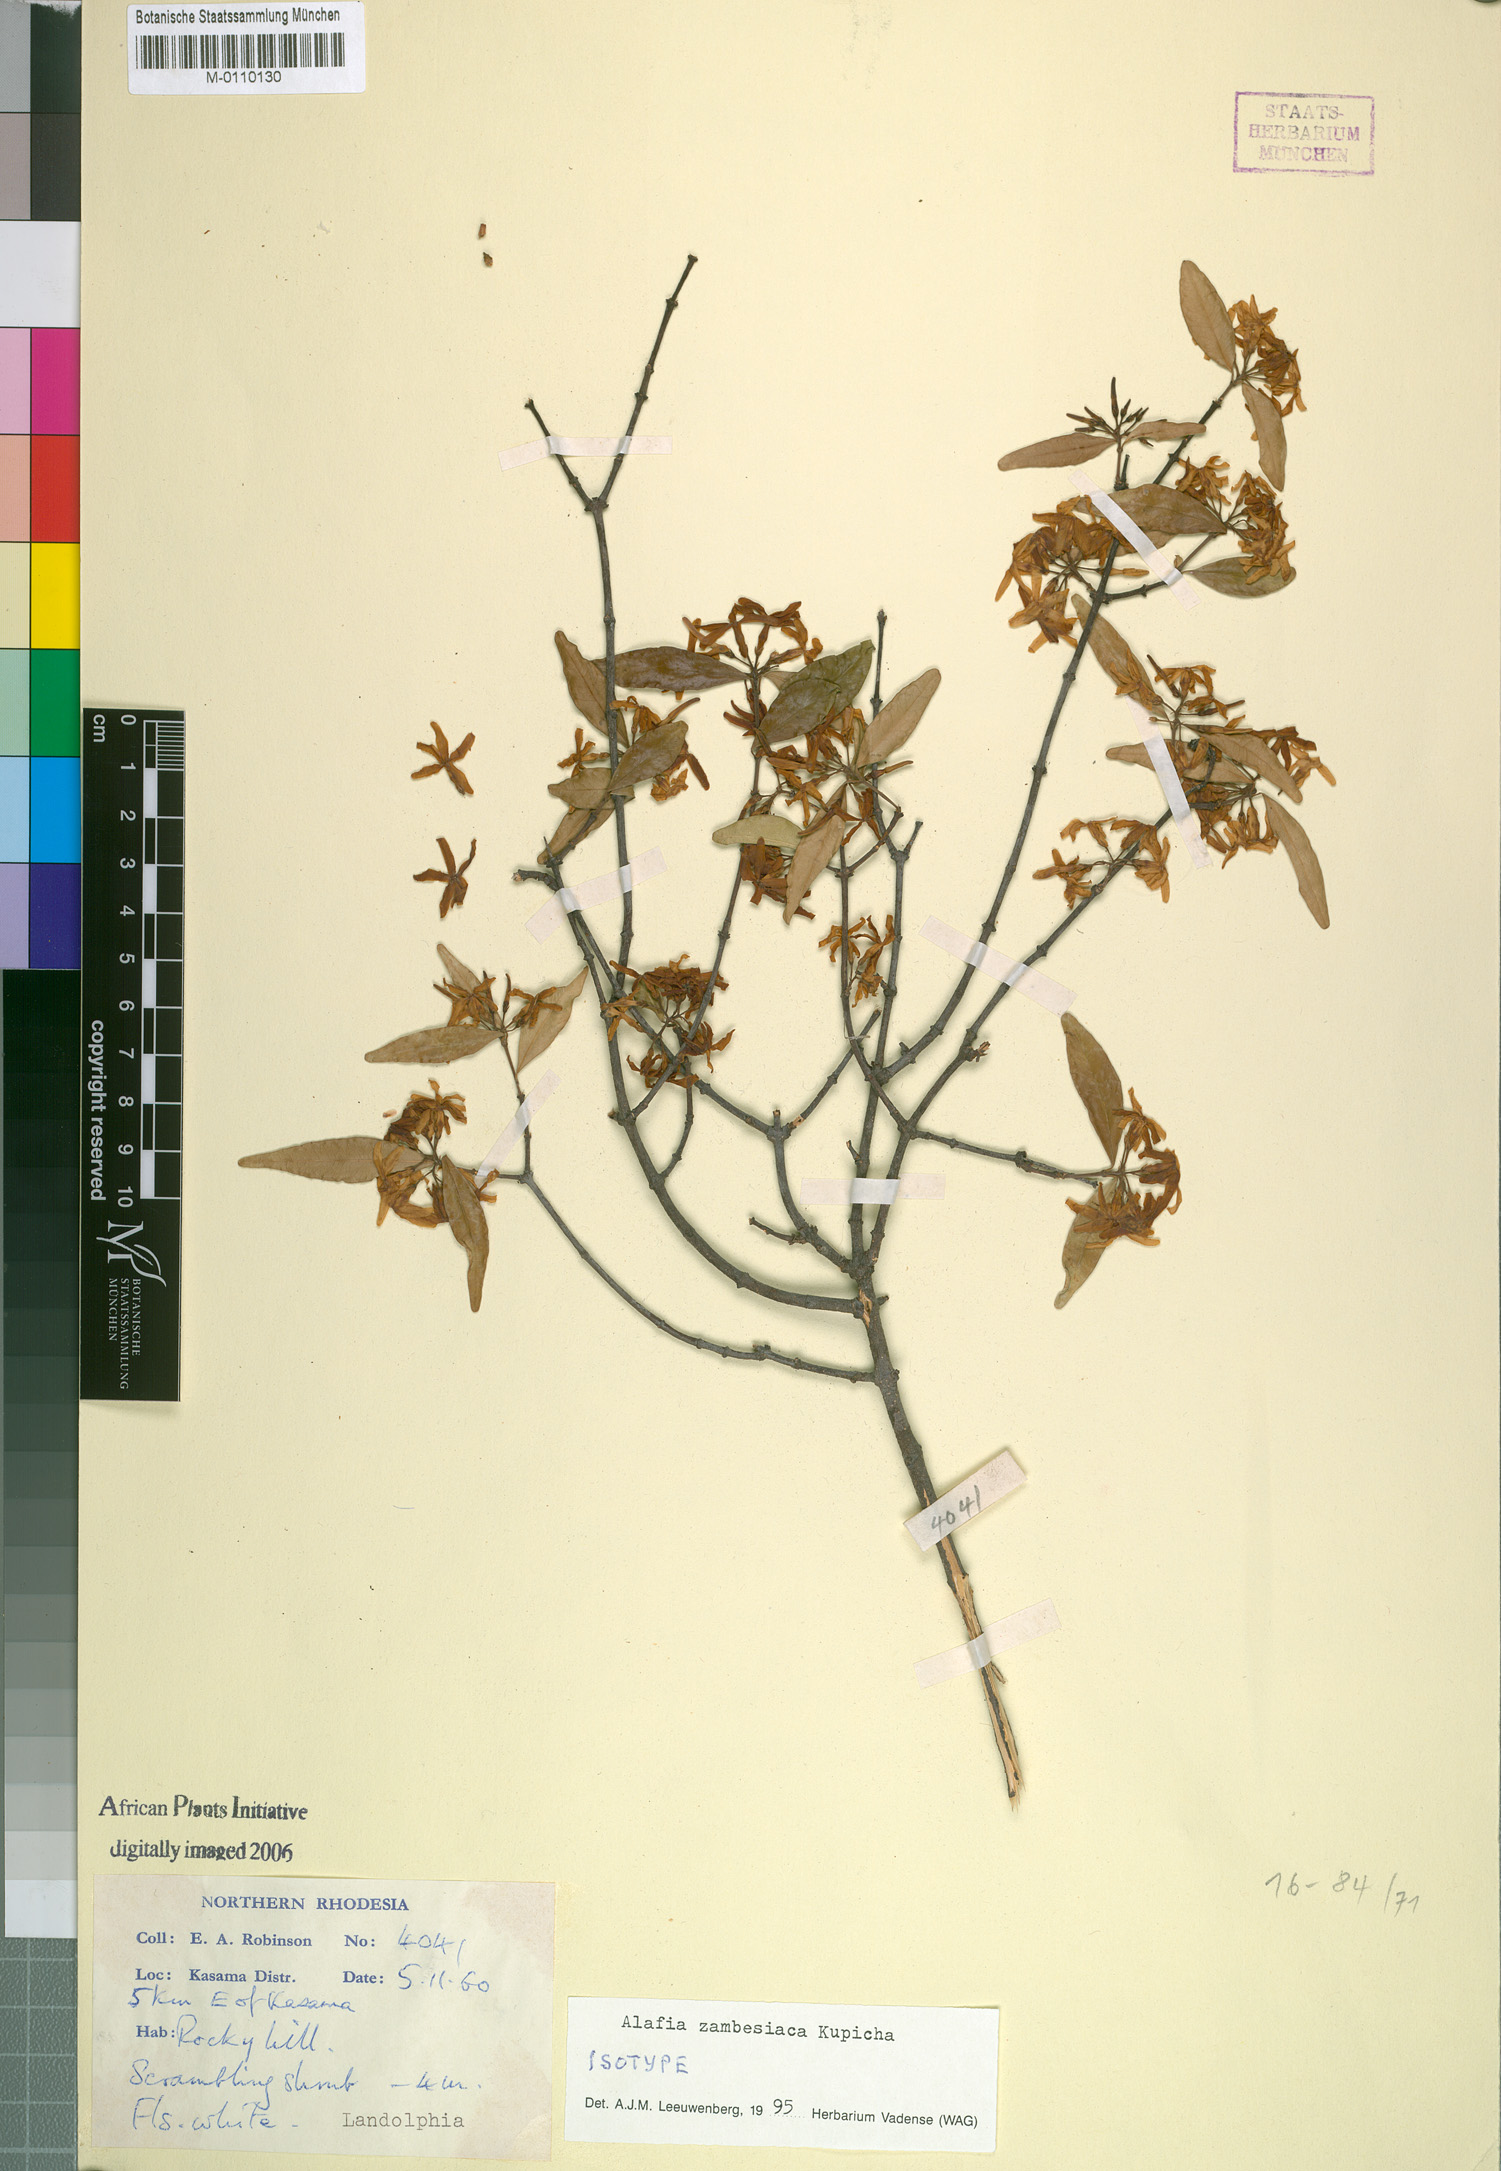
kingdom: Plantae
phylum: Tracheophyta
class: Magnoliopsida
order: Gentianales
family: Apocynaceae
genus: Alafia
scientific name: Alafia zambesiaca
